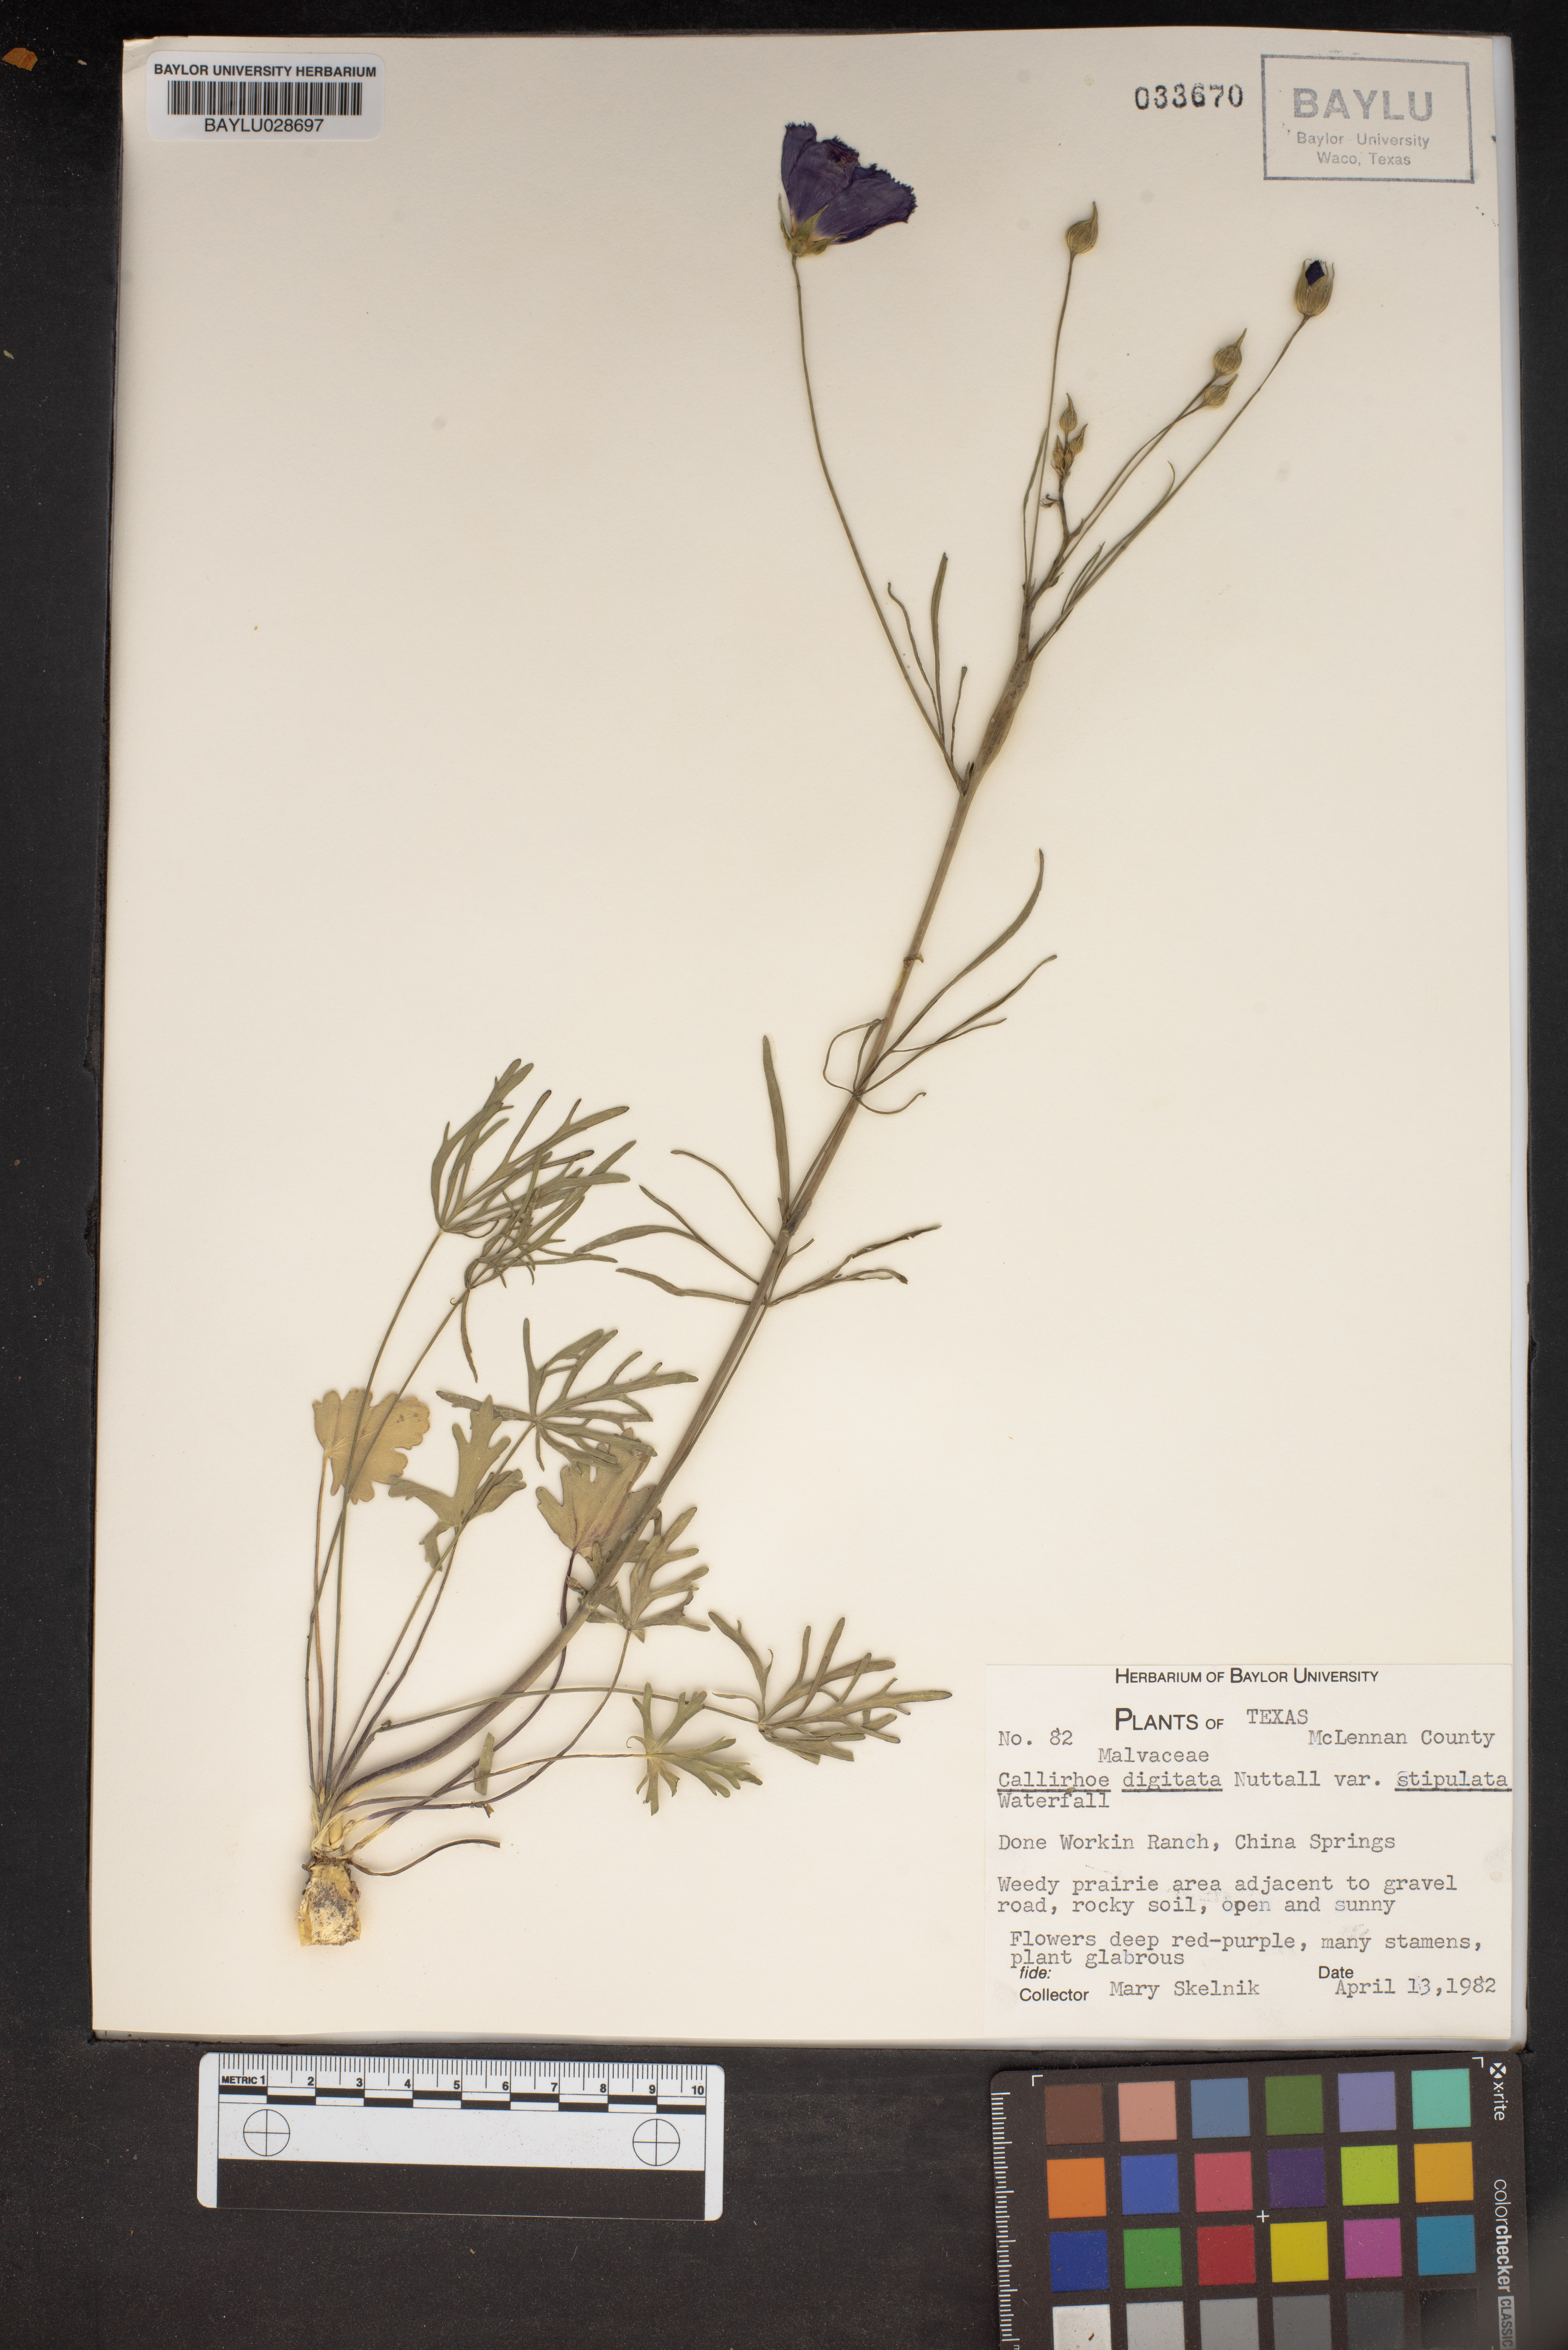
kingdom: Plantae
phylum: Tracheophyta
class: Magnoliopsida
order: Malvales
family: Malvaceae
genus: Callirhoe
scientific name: Callirhoe pedata
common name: Finger poppy-mallow
